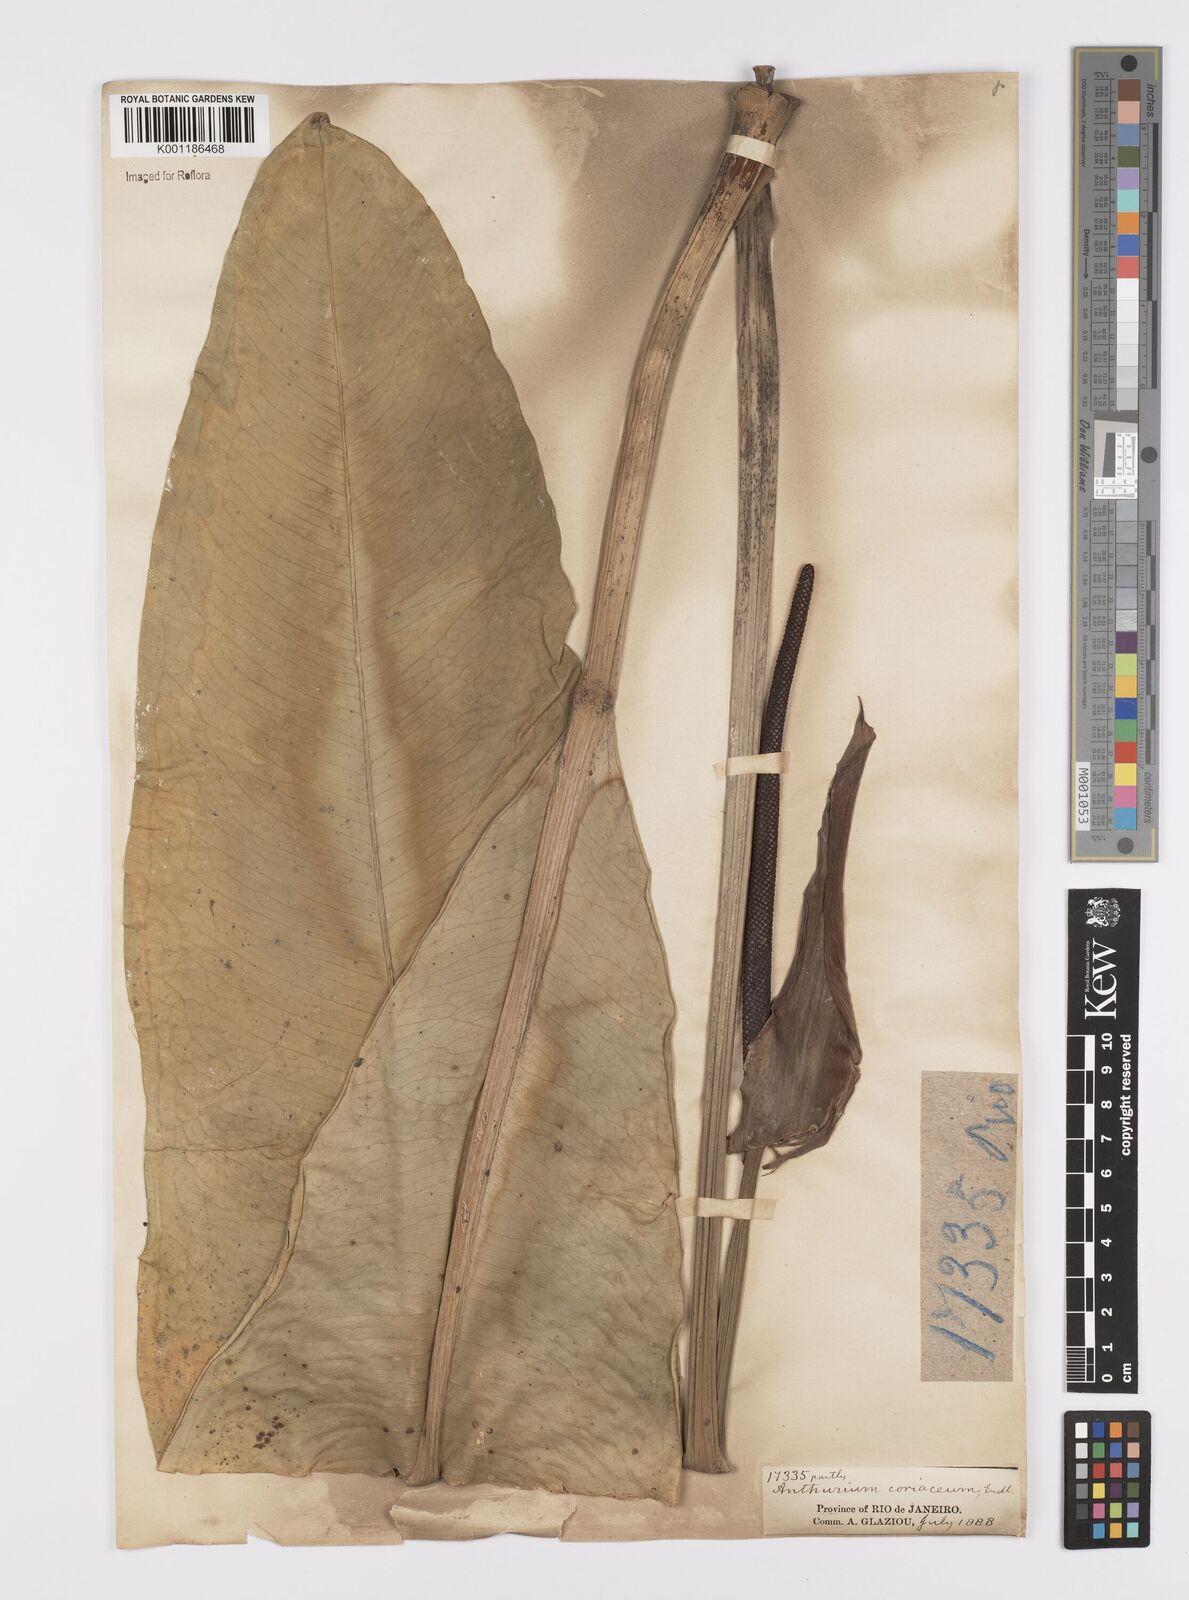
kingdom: Plantae
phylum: Tracheophyta
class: Liliopsida
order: Alismatales
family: Araceae
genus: Anthurium
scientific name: Anthurium coriaceum
